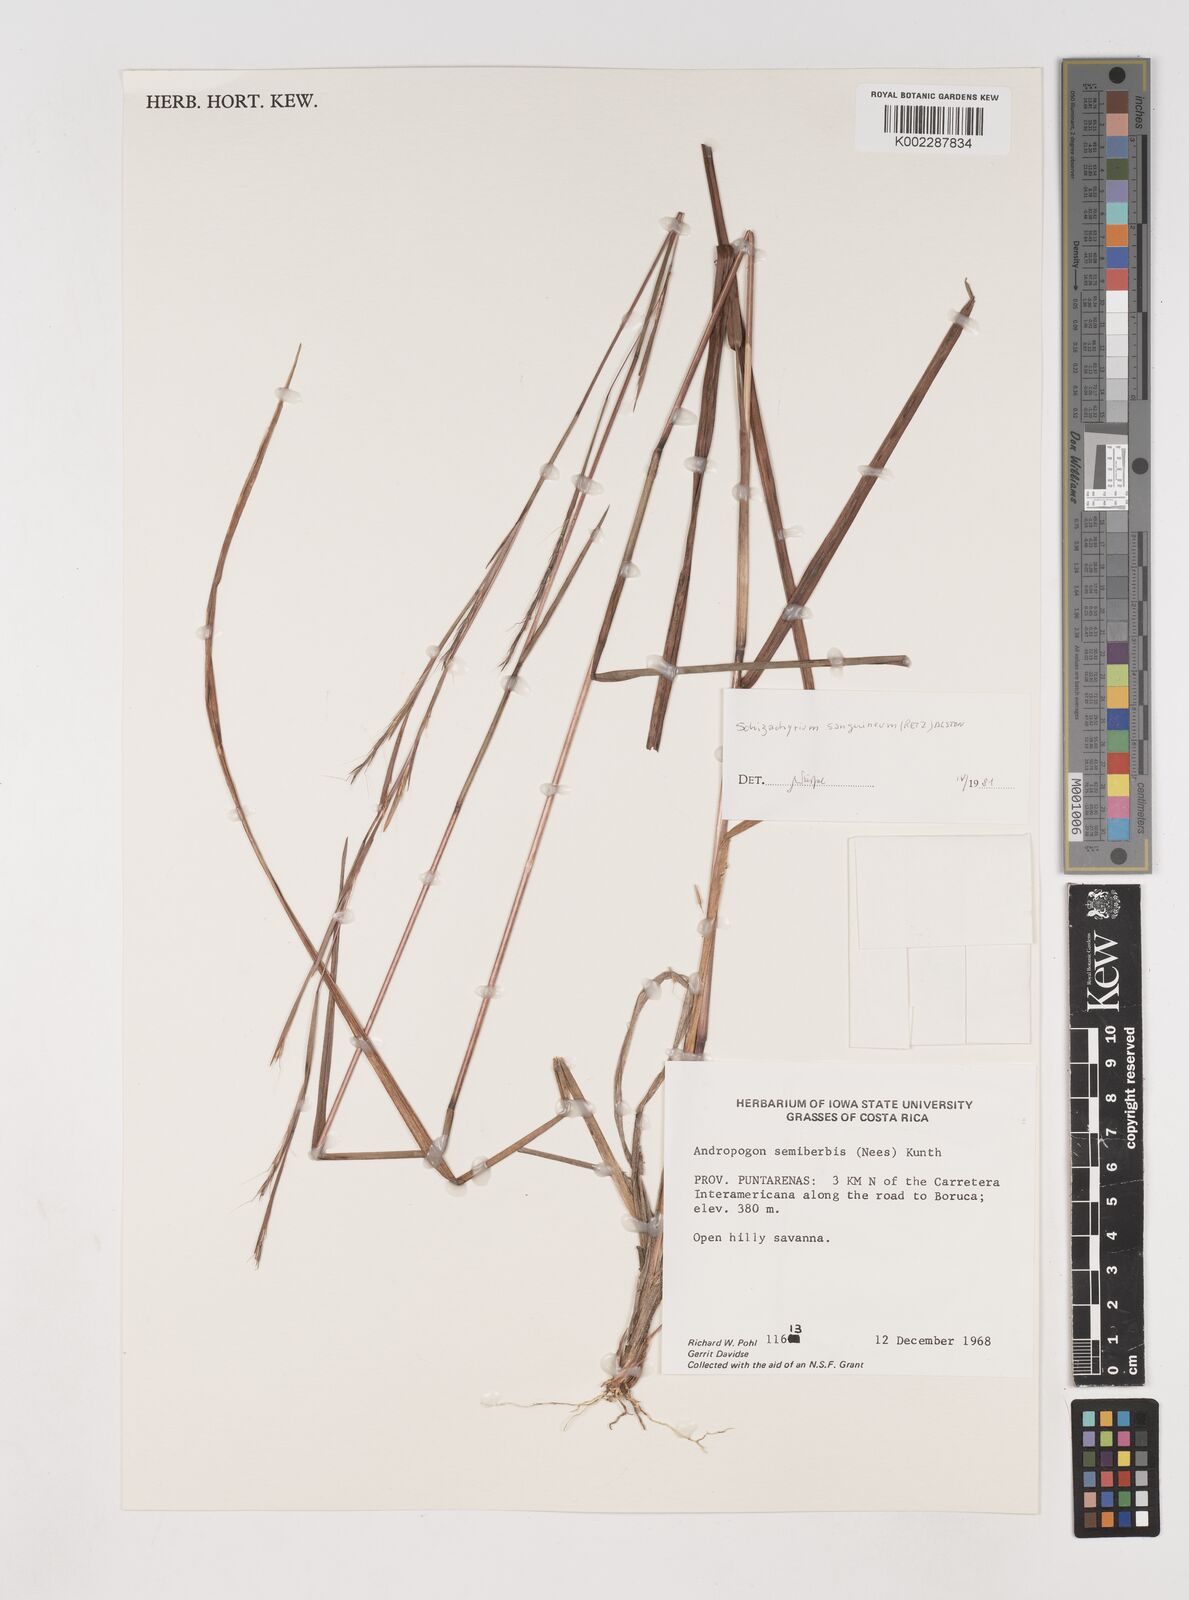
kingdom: Plantae
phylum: Tracheophyta
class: Liliopsida
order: Poales
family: Poaceae
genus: Schizachyrium
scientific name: Schizachyrium sanguineum
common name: Crimson bluestem
